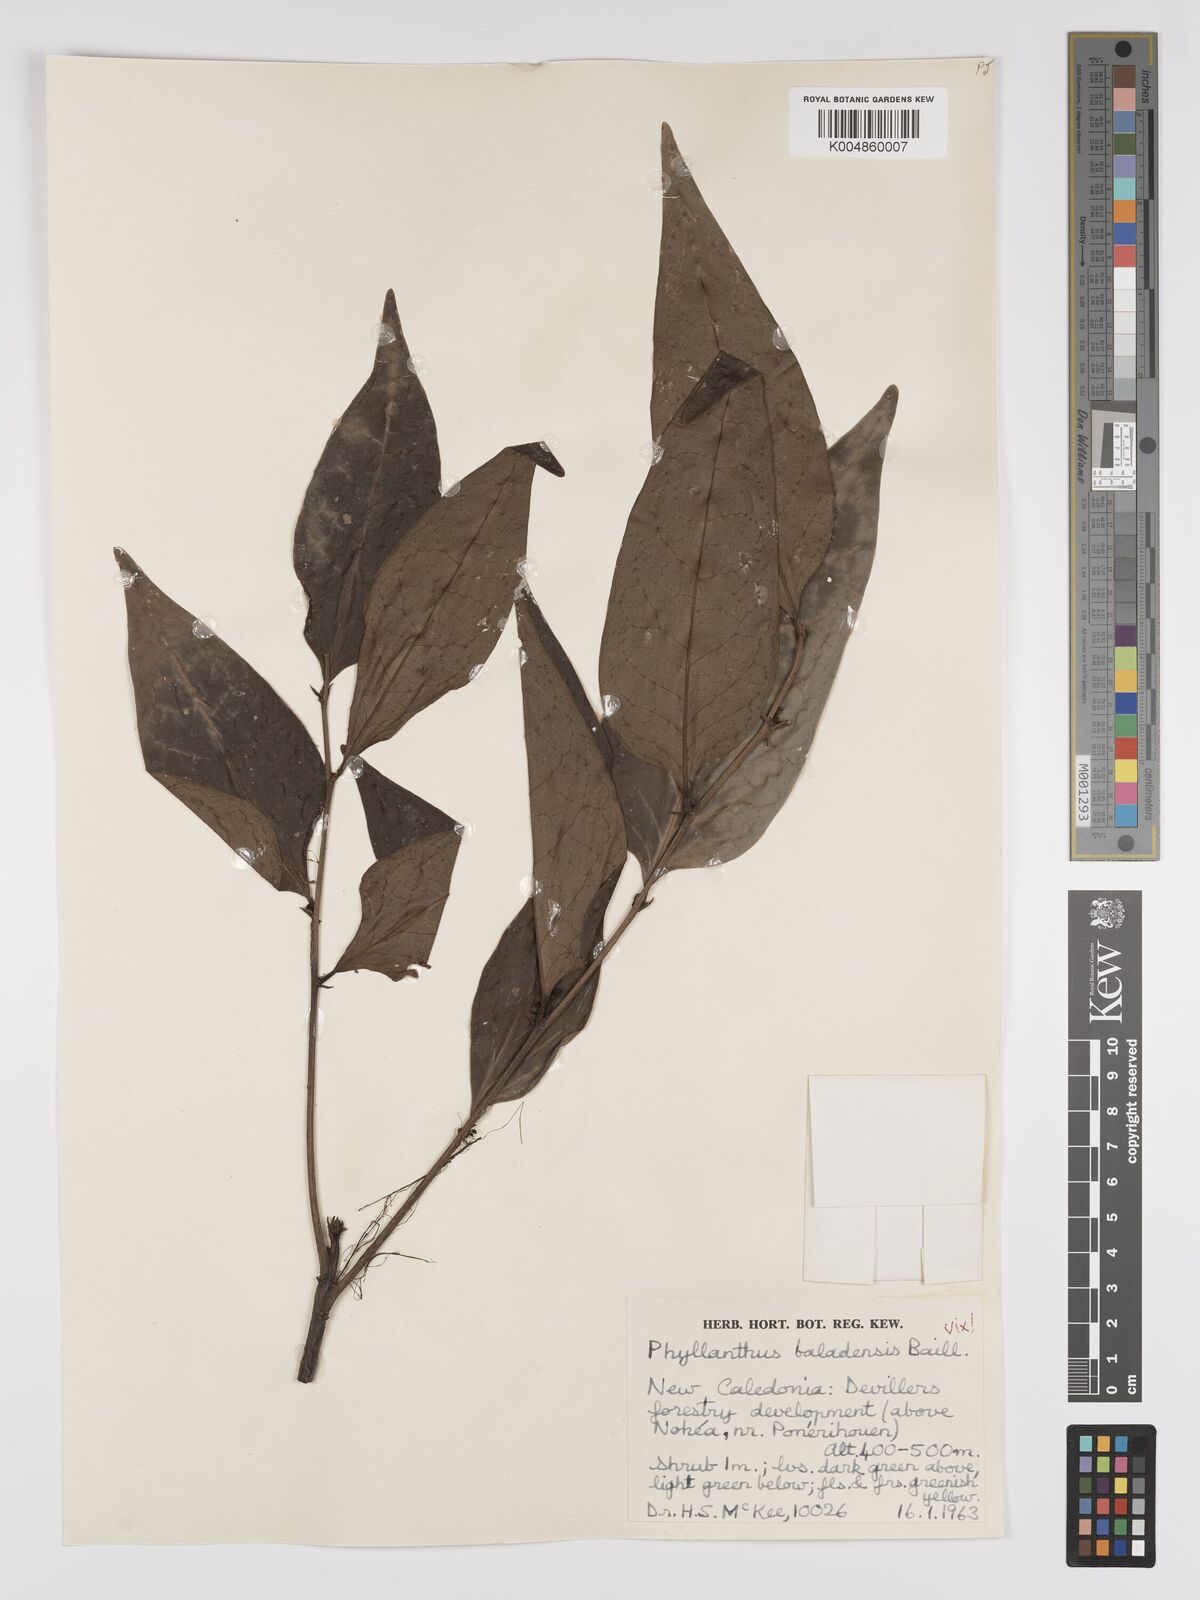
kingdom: Plantae
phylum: Tracheophyta
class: Magnoliopsida
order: Malpighiales
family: Phyllanthaceae
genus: Phyllanthus
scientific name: Phyllanthus
